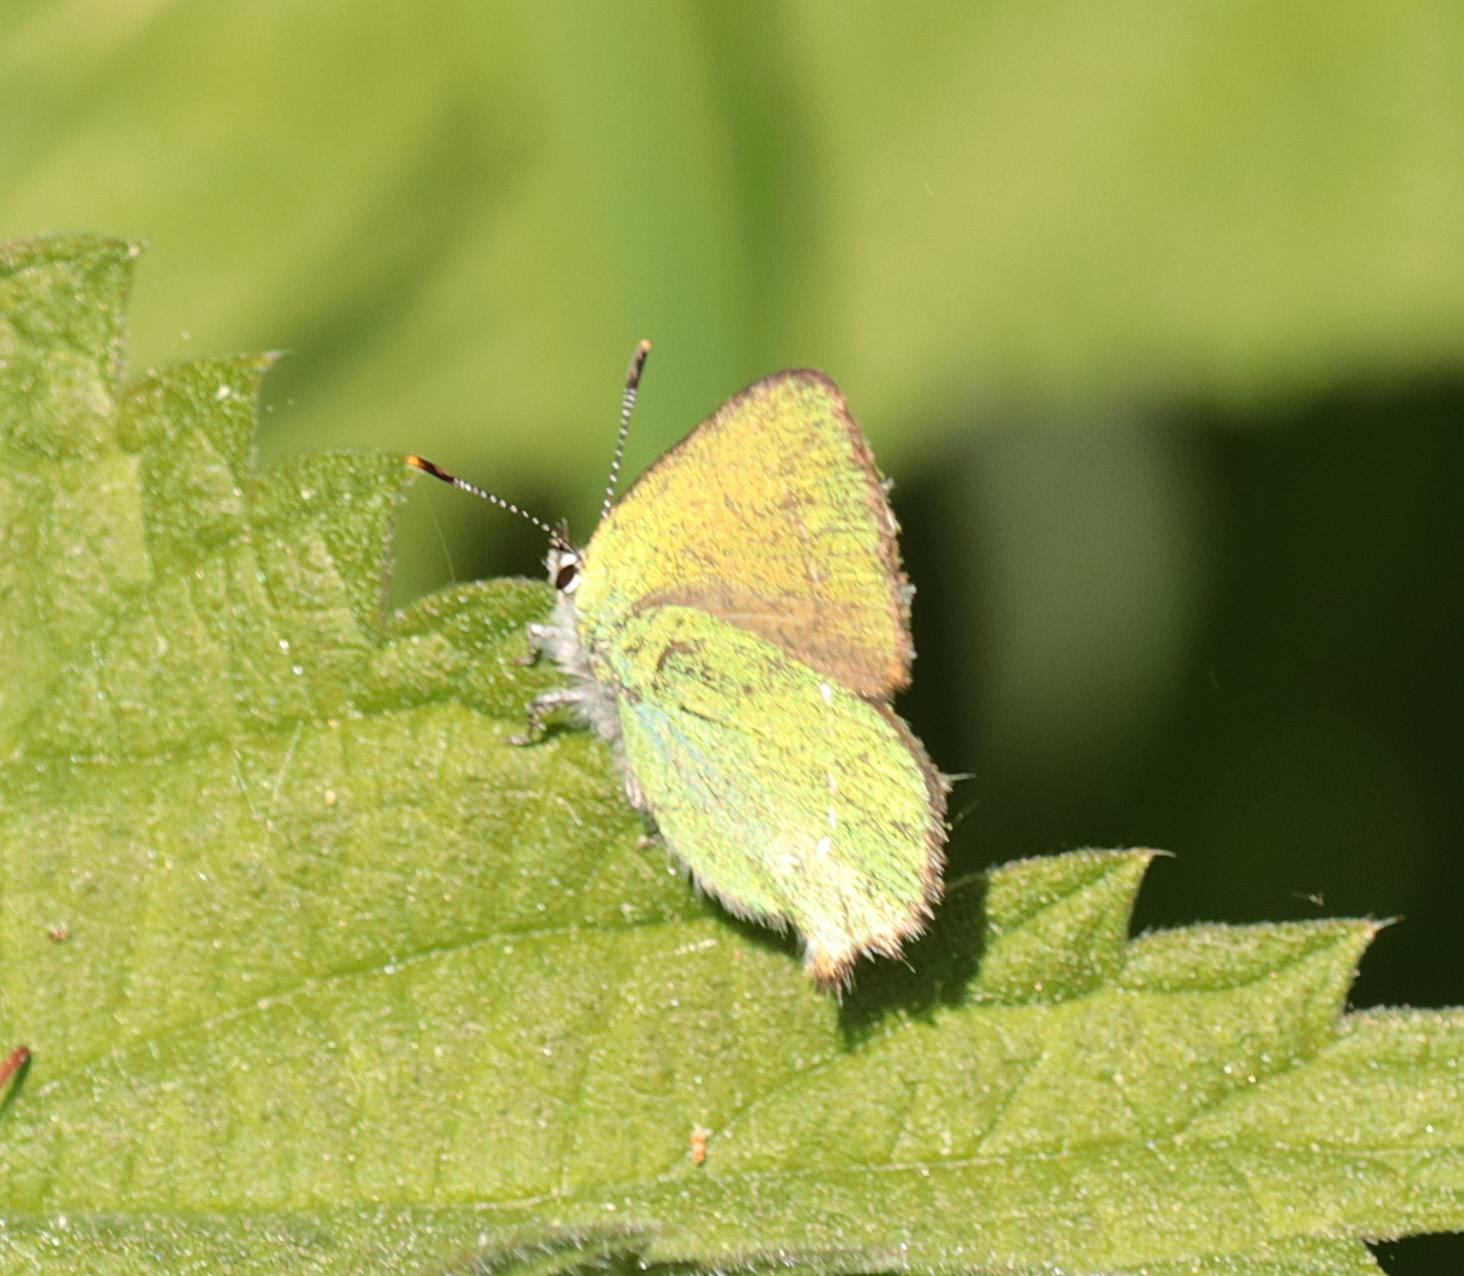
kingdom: Animalia
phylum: Arthropoda
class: Insecta
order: Lepidoptera
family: Lycaenidae
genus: Callophrys
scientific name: Callophrys rubi
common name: Grøn busksommerfugl
